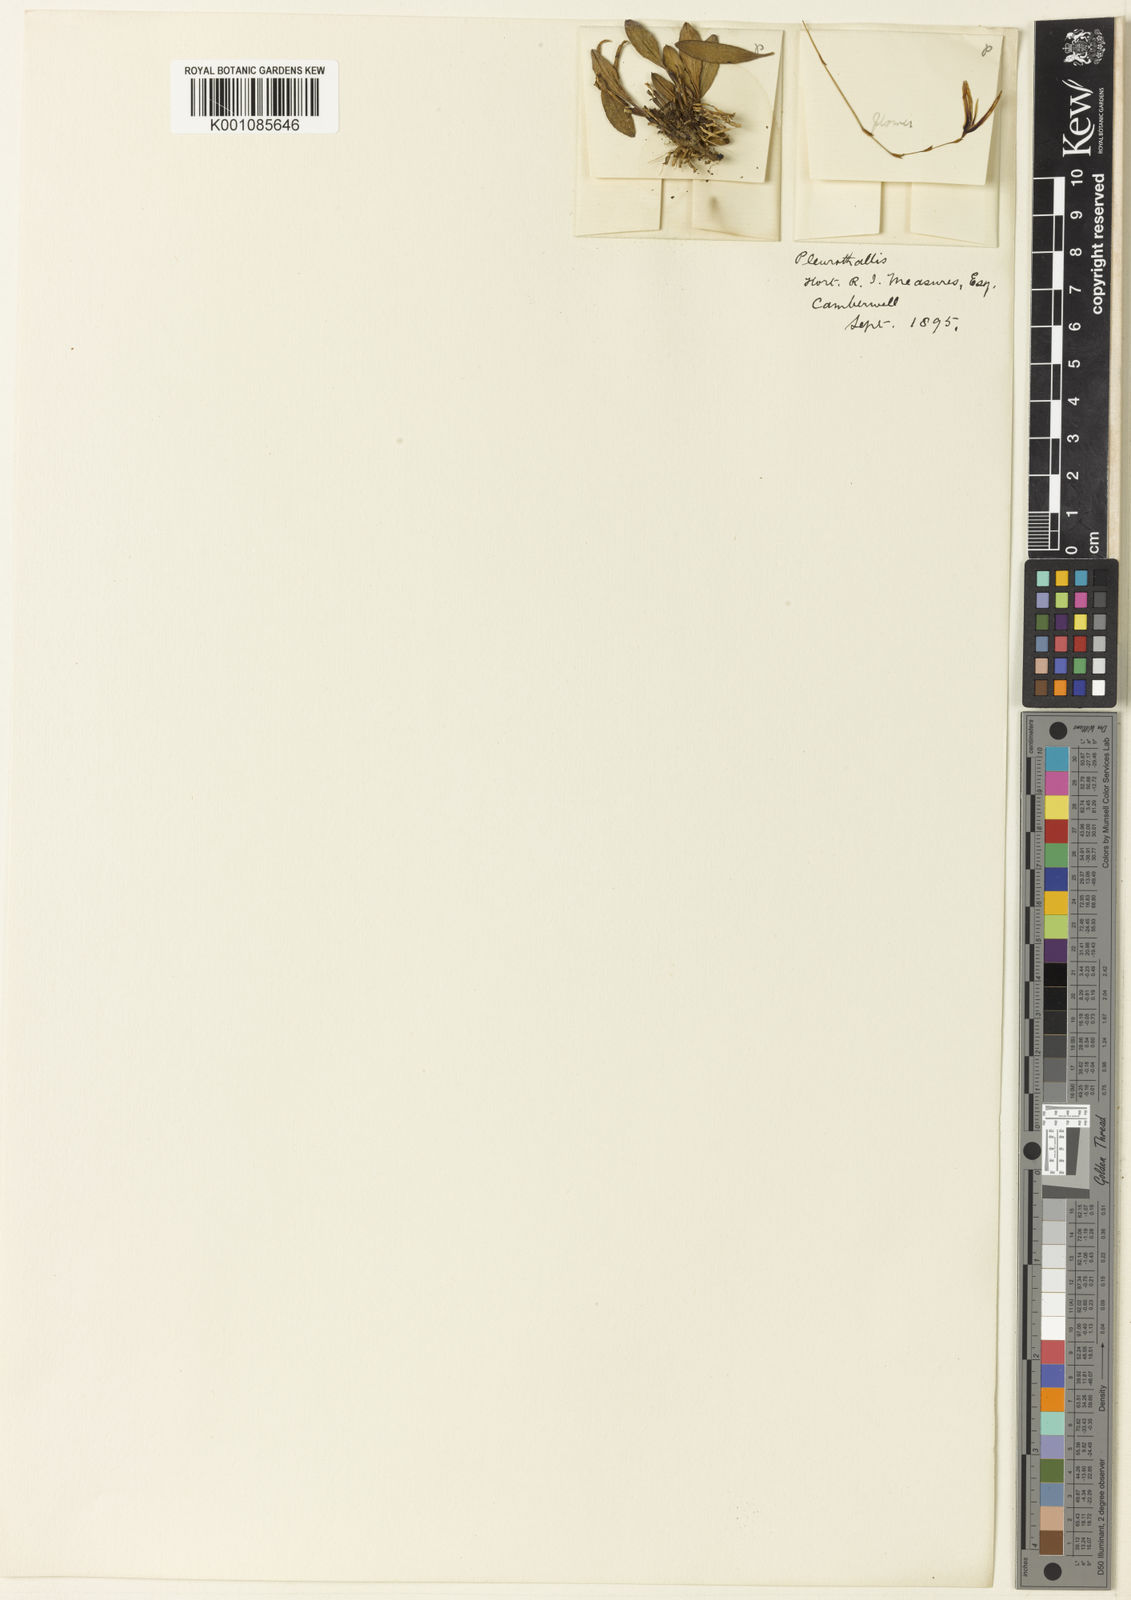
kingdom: Plantae
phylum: Tracheophyta
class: Liliopsida
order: Asparagales
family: Orchidaceae
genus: Anathallis
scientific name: Anathallis attenuata
